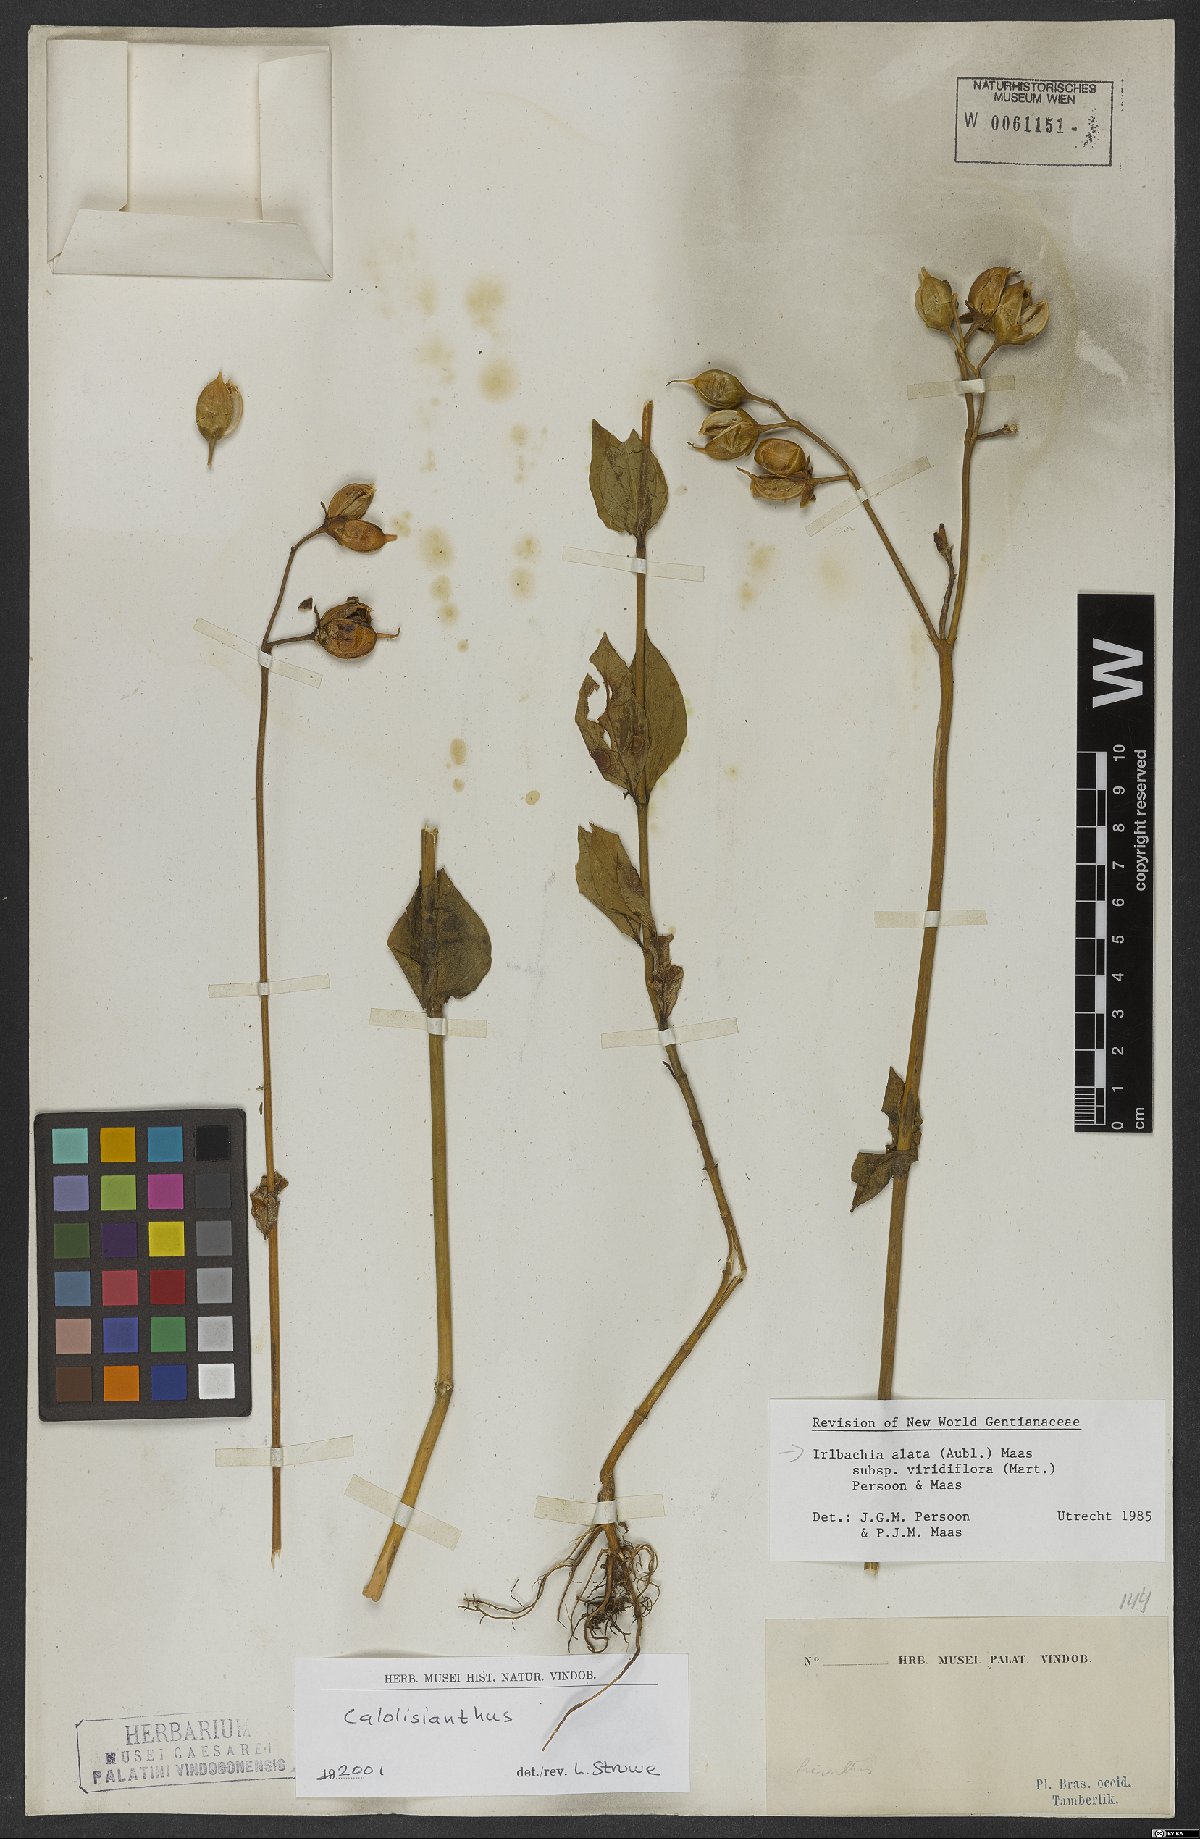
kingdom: Plantae
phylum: Tracheophyta
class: Magnoliopsida
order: Gentianales
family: Gentianaceae
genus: Chelonanthus
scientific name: Chelonanthus viridiflorus
